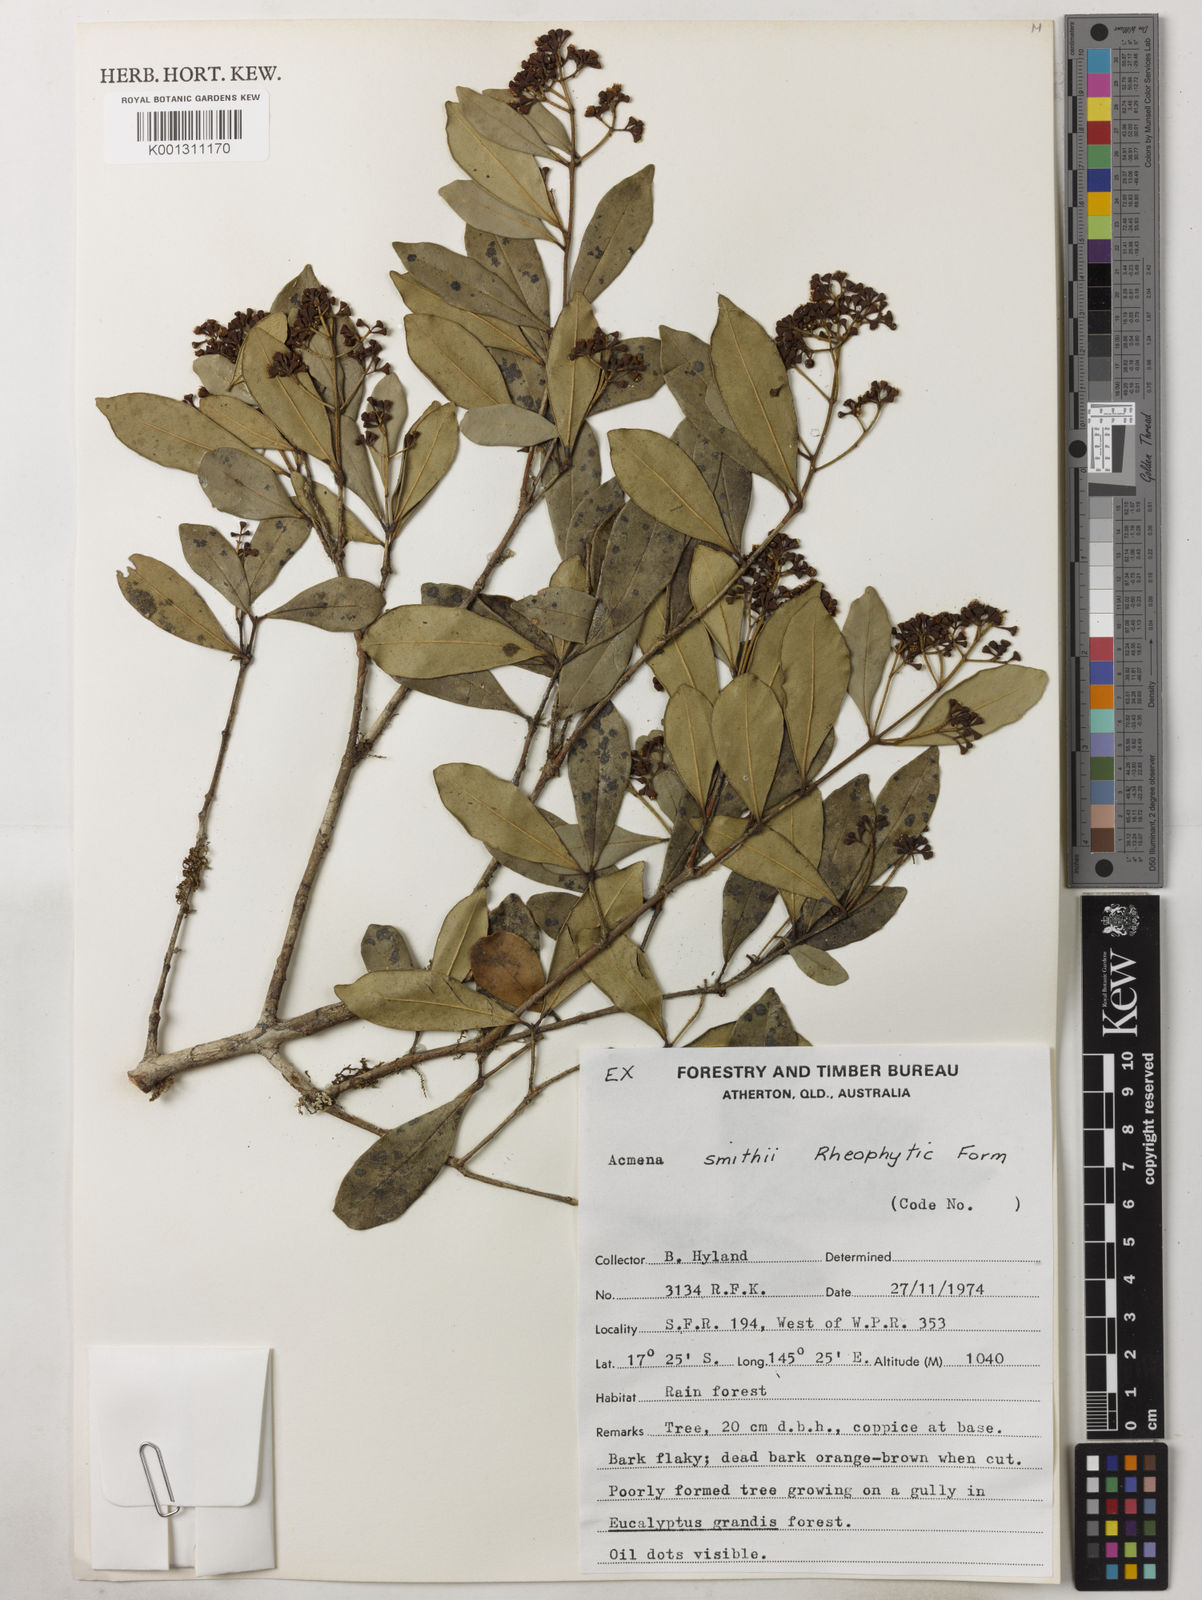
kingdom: Plantae
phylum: Tracheophyta
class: Magnoliopsida
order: Myrtales
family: Myrtaceae
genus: Syzygium
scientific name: Syzygium smithii
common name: Lilly-pilly
